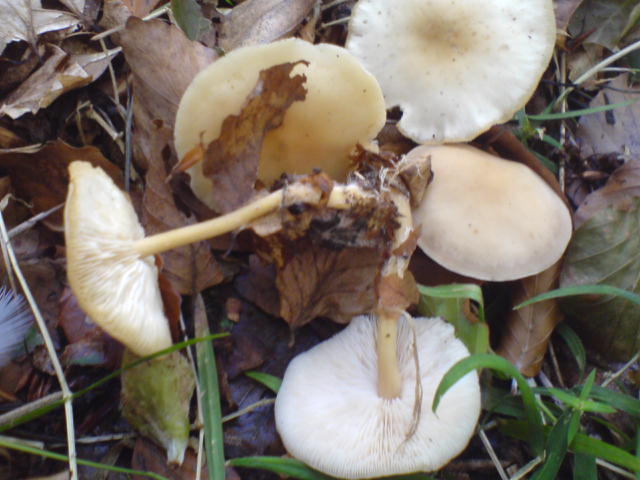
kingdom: Fungi
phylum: Basidiomycota
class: Agaricomycetes
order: Agaricales
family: Omphalotaceae
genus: Gymnopus
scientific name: Gymnopus dryophilus
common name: løv-fladhat
